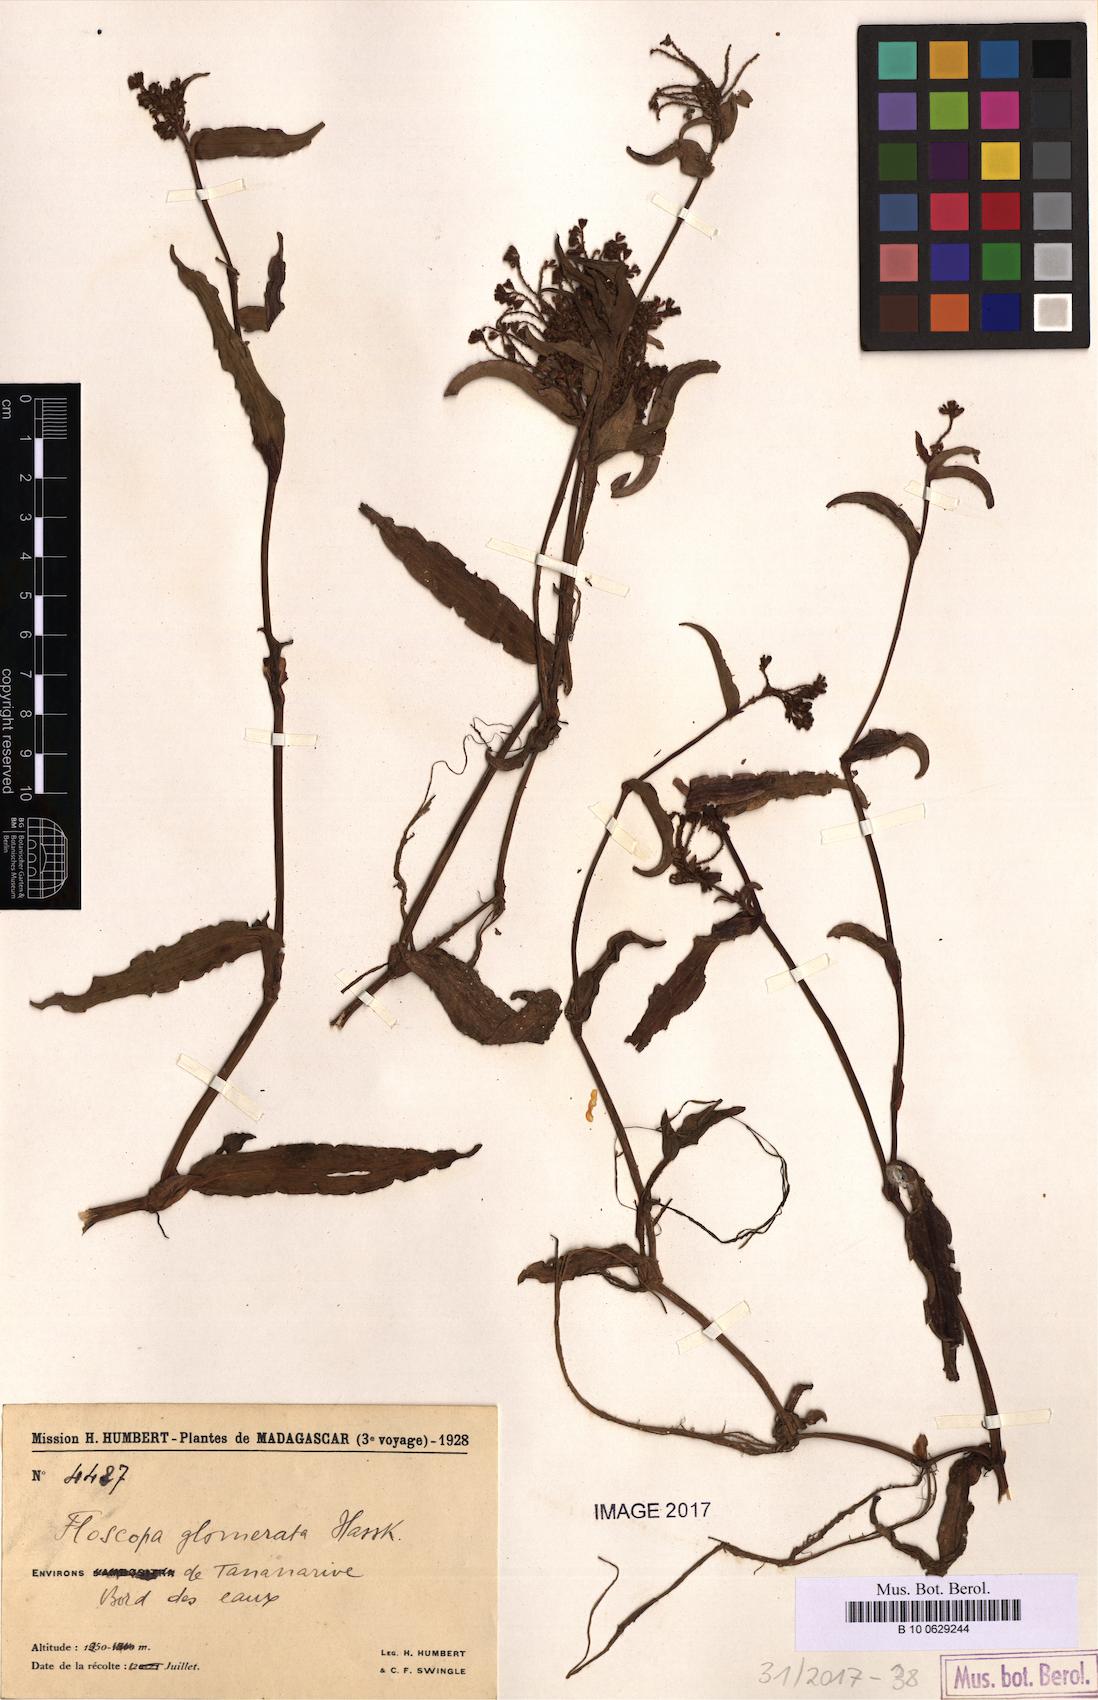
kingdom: Plantae
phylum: Tracheophyta
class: Liliopsida
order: Commelinales
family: Commelinaceae
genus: Floscopa
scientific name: Floscopa glomerata
